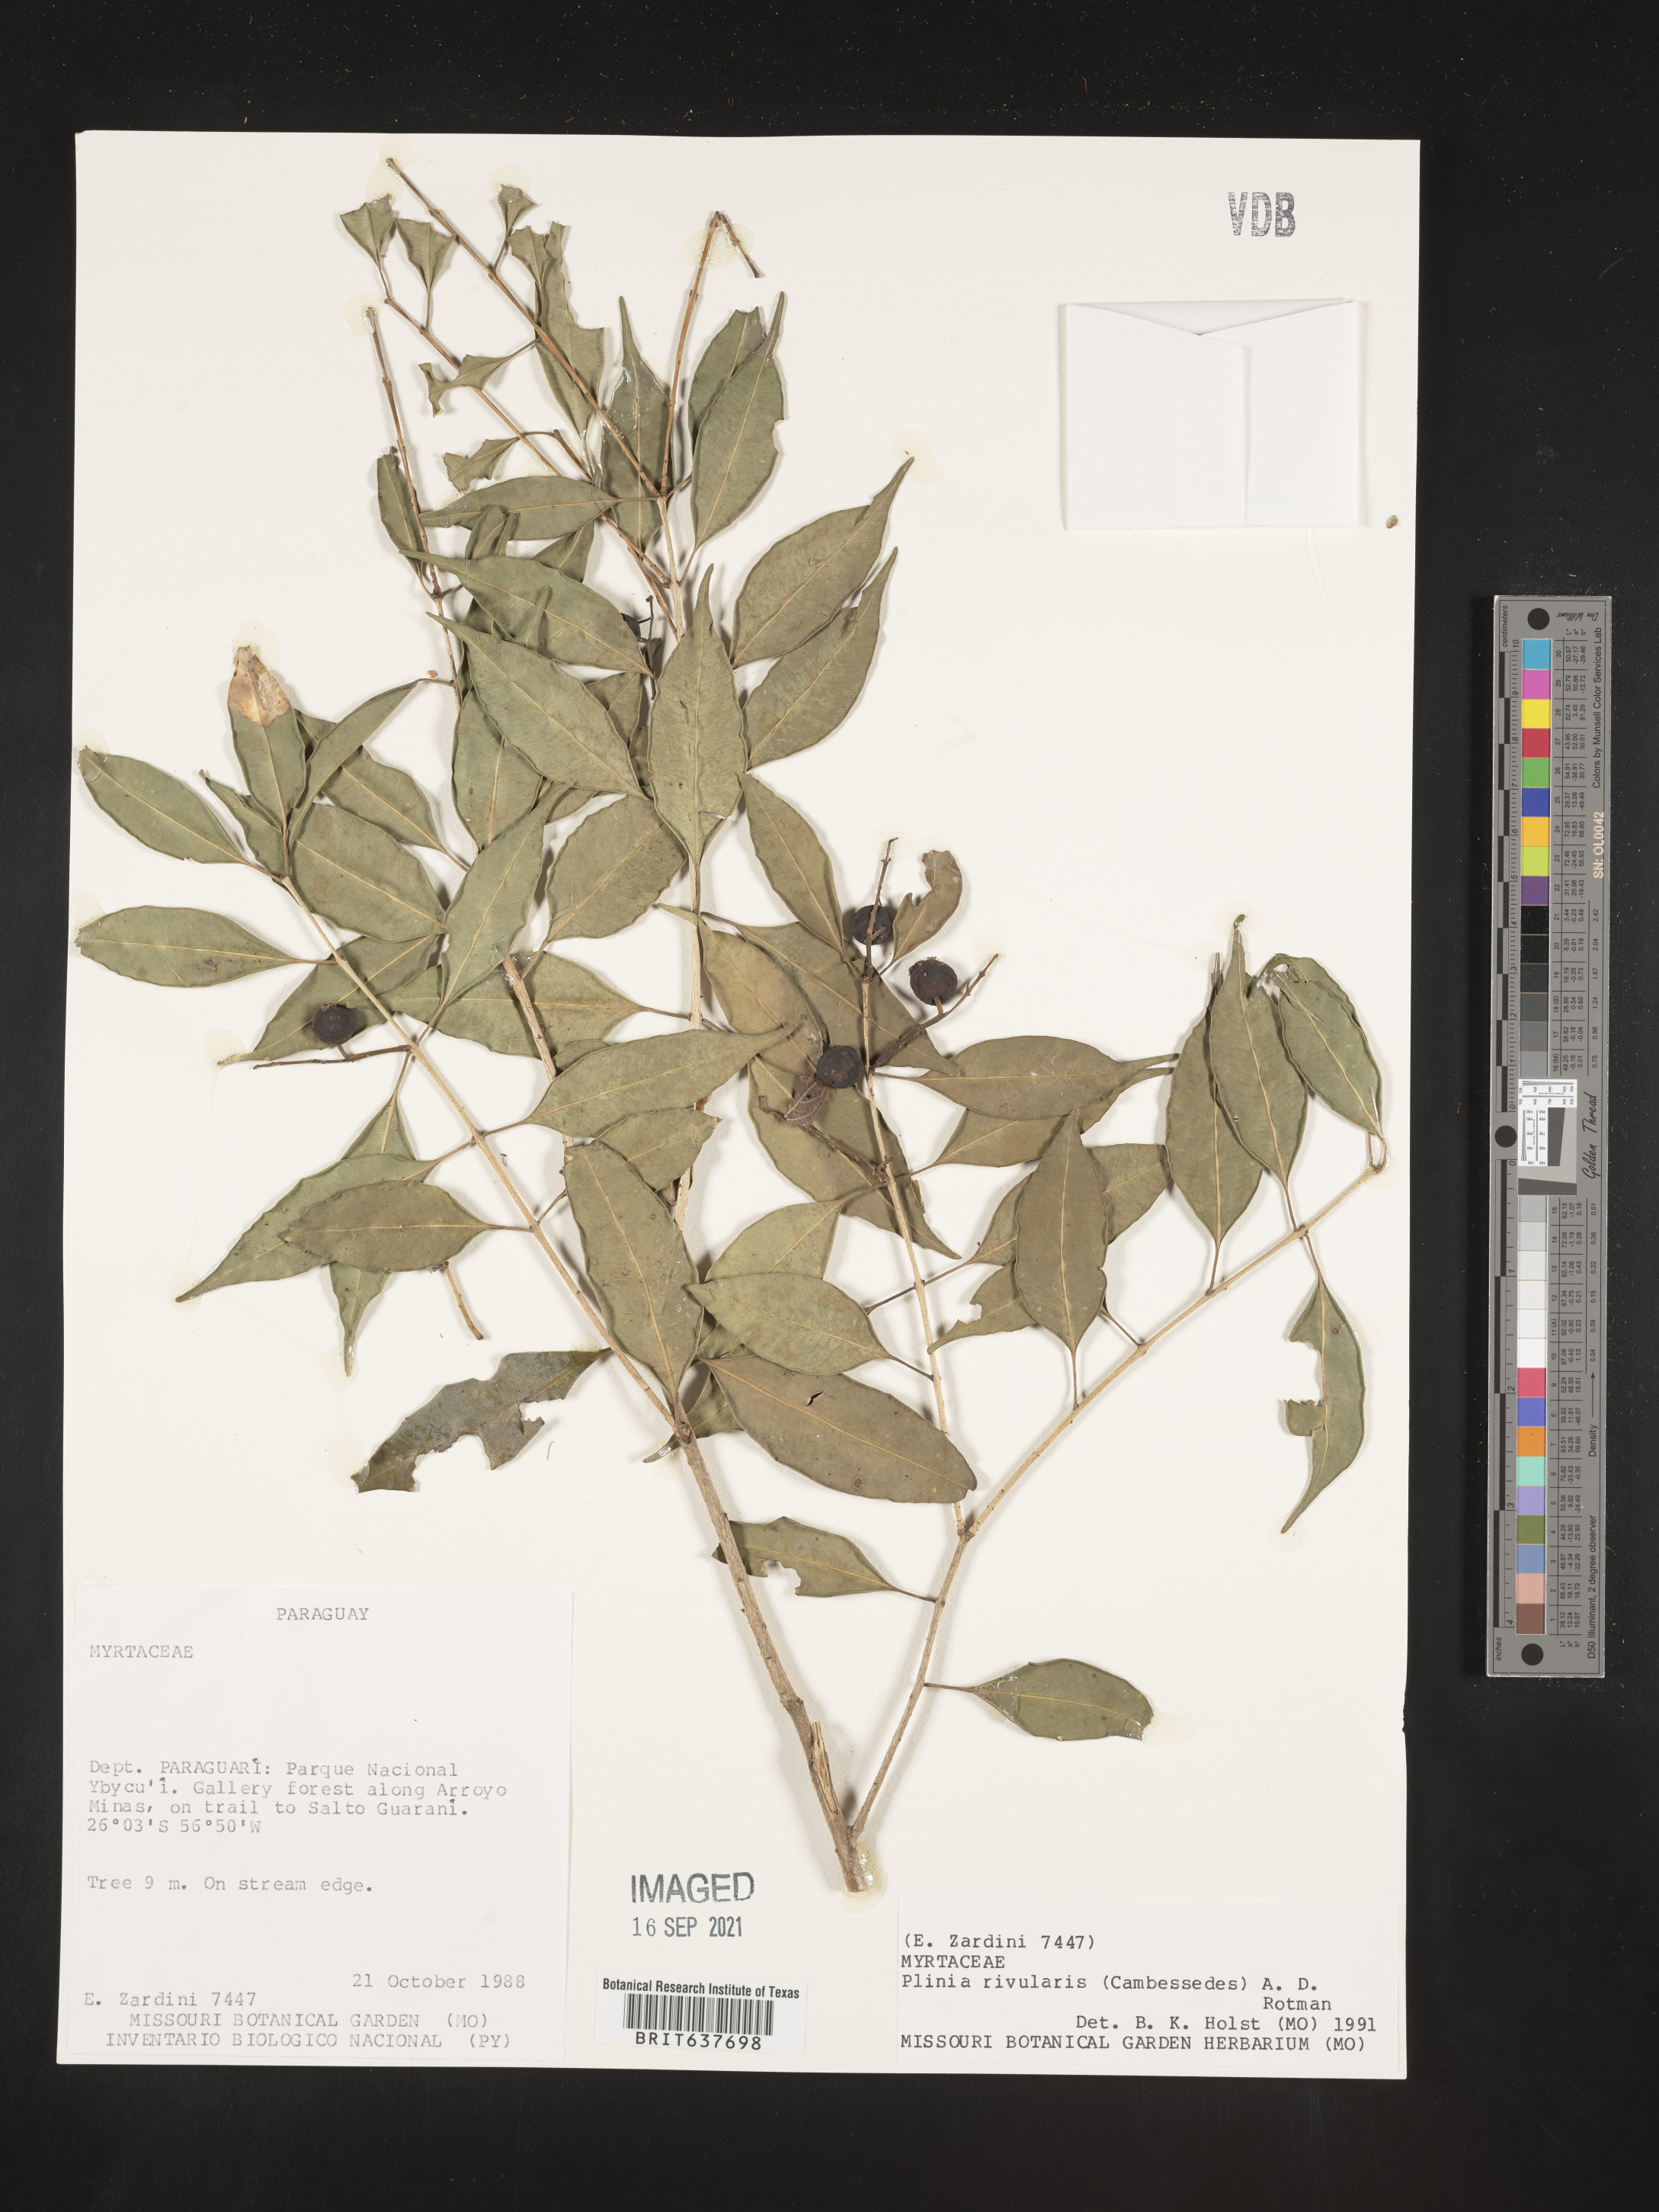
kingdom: Plantae
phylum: Tracheophyta
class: Magnoliopsida
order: Myrtales
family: Myrtaceae
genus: Plinia
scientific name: Plinia
